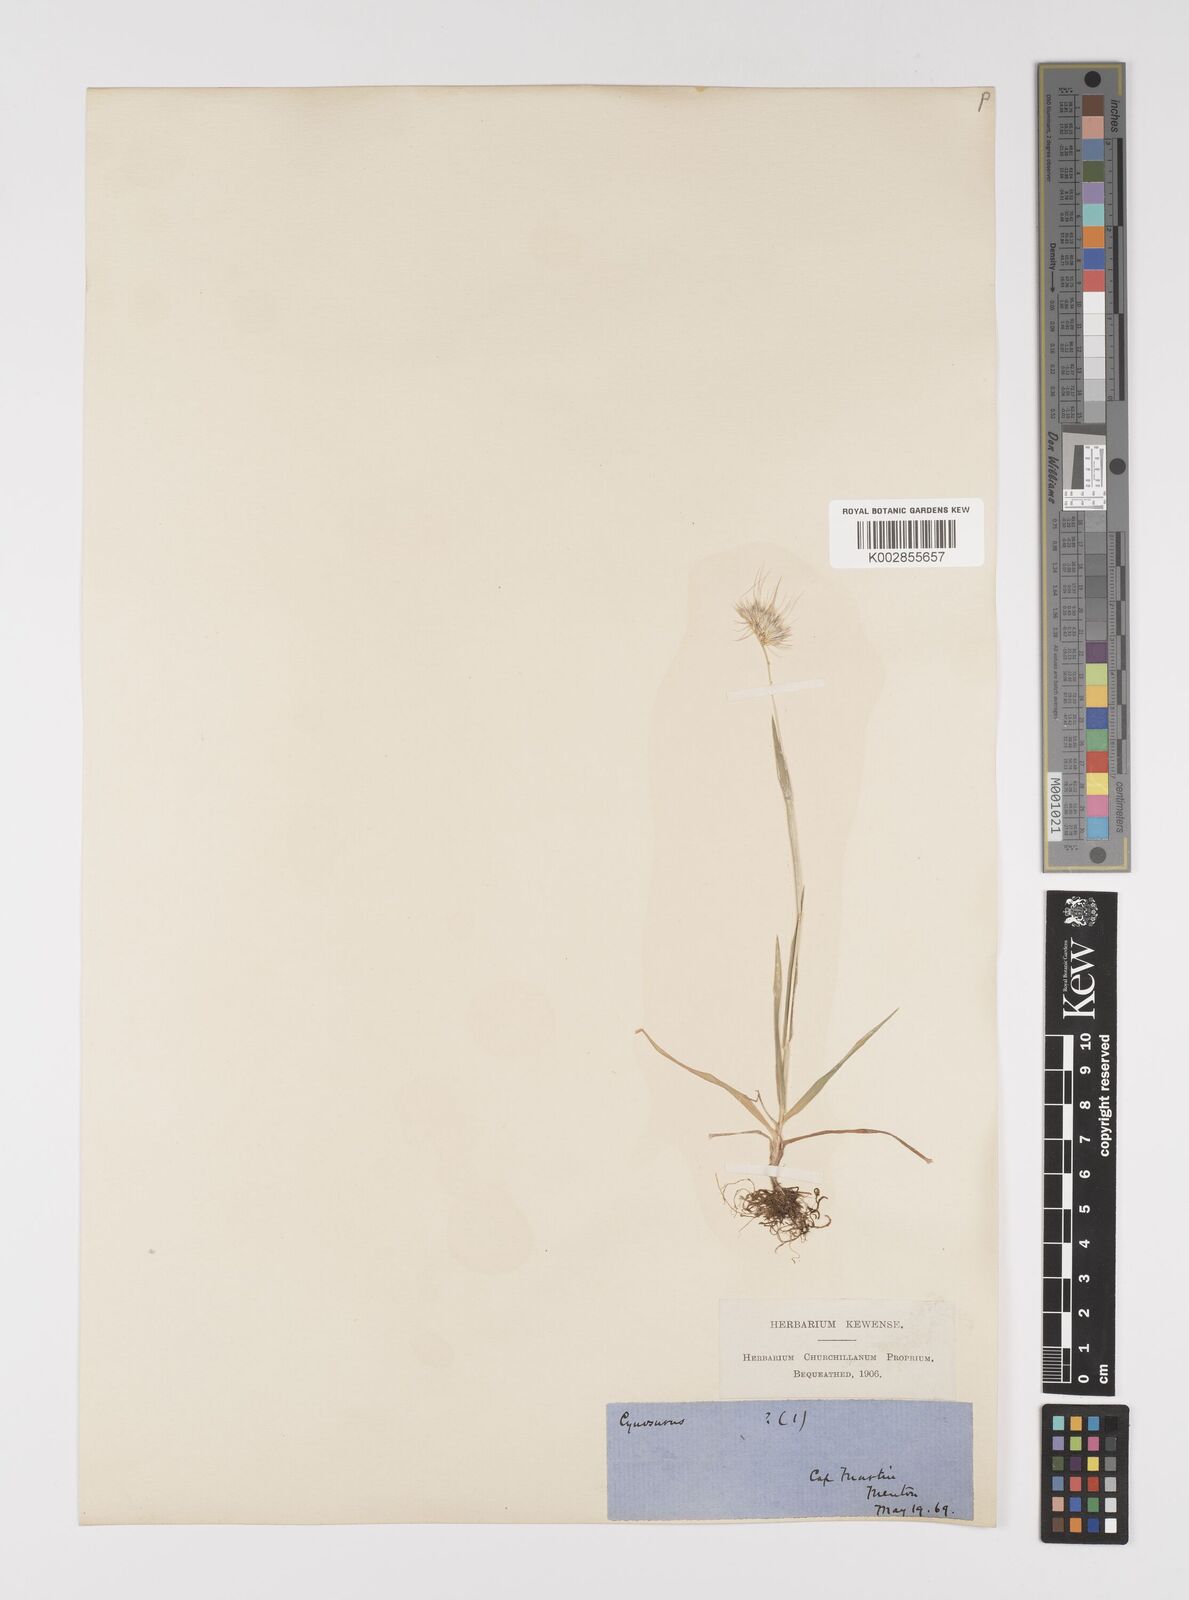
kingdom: Plantae
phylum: Tracheophyta
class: Liliopsida
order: Poales
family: Poaceae
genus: Cynosurus
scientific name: Cynosurus echinatus
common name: Rough dog's-tail
